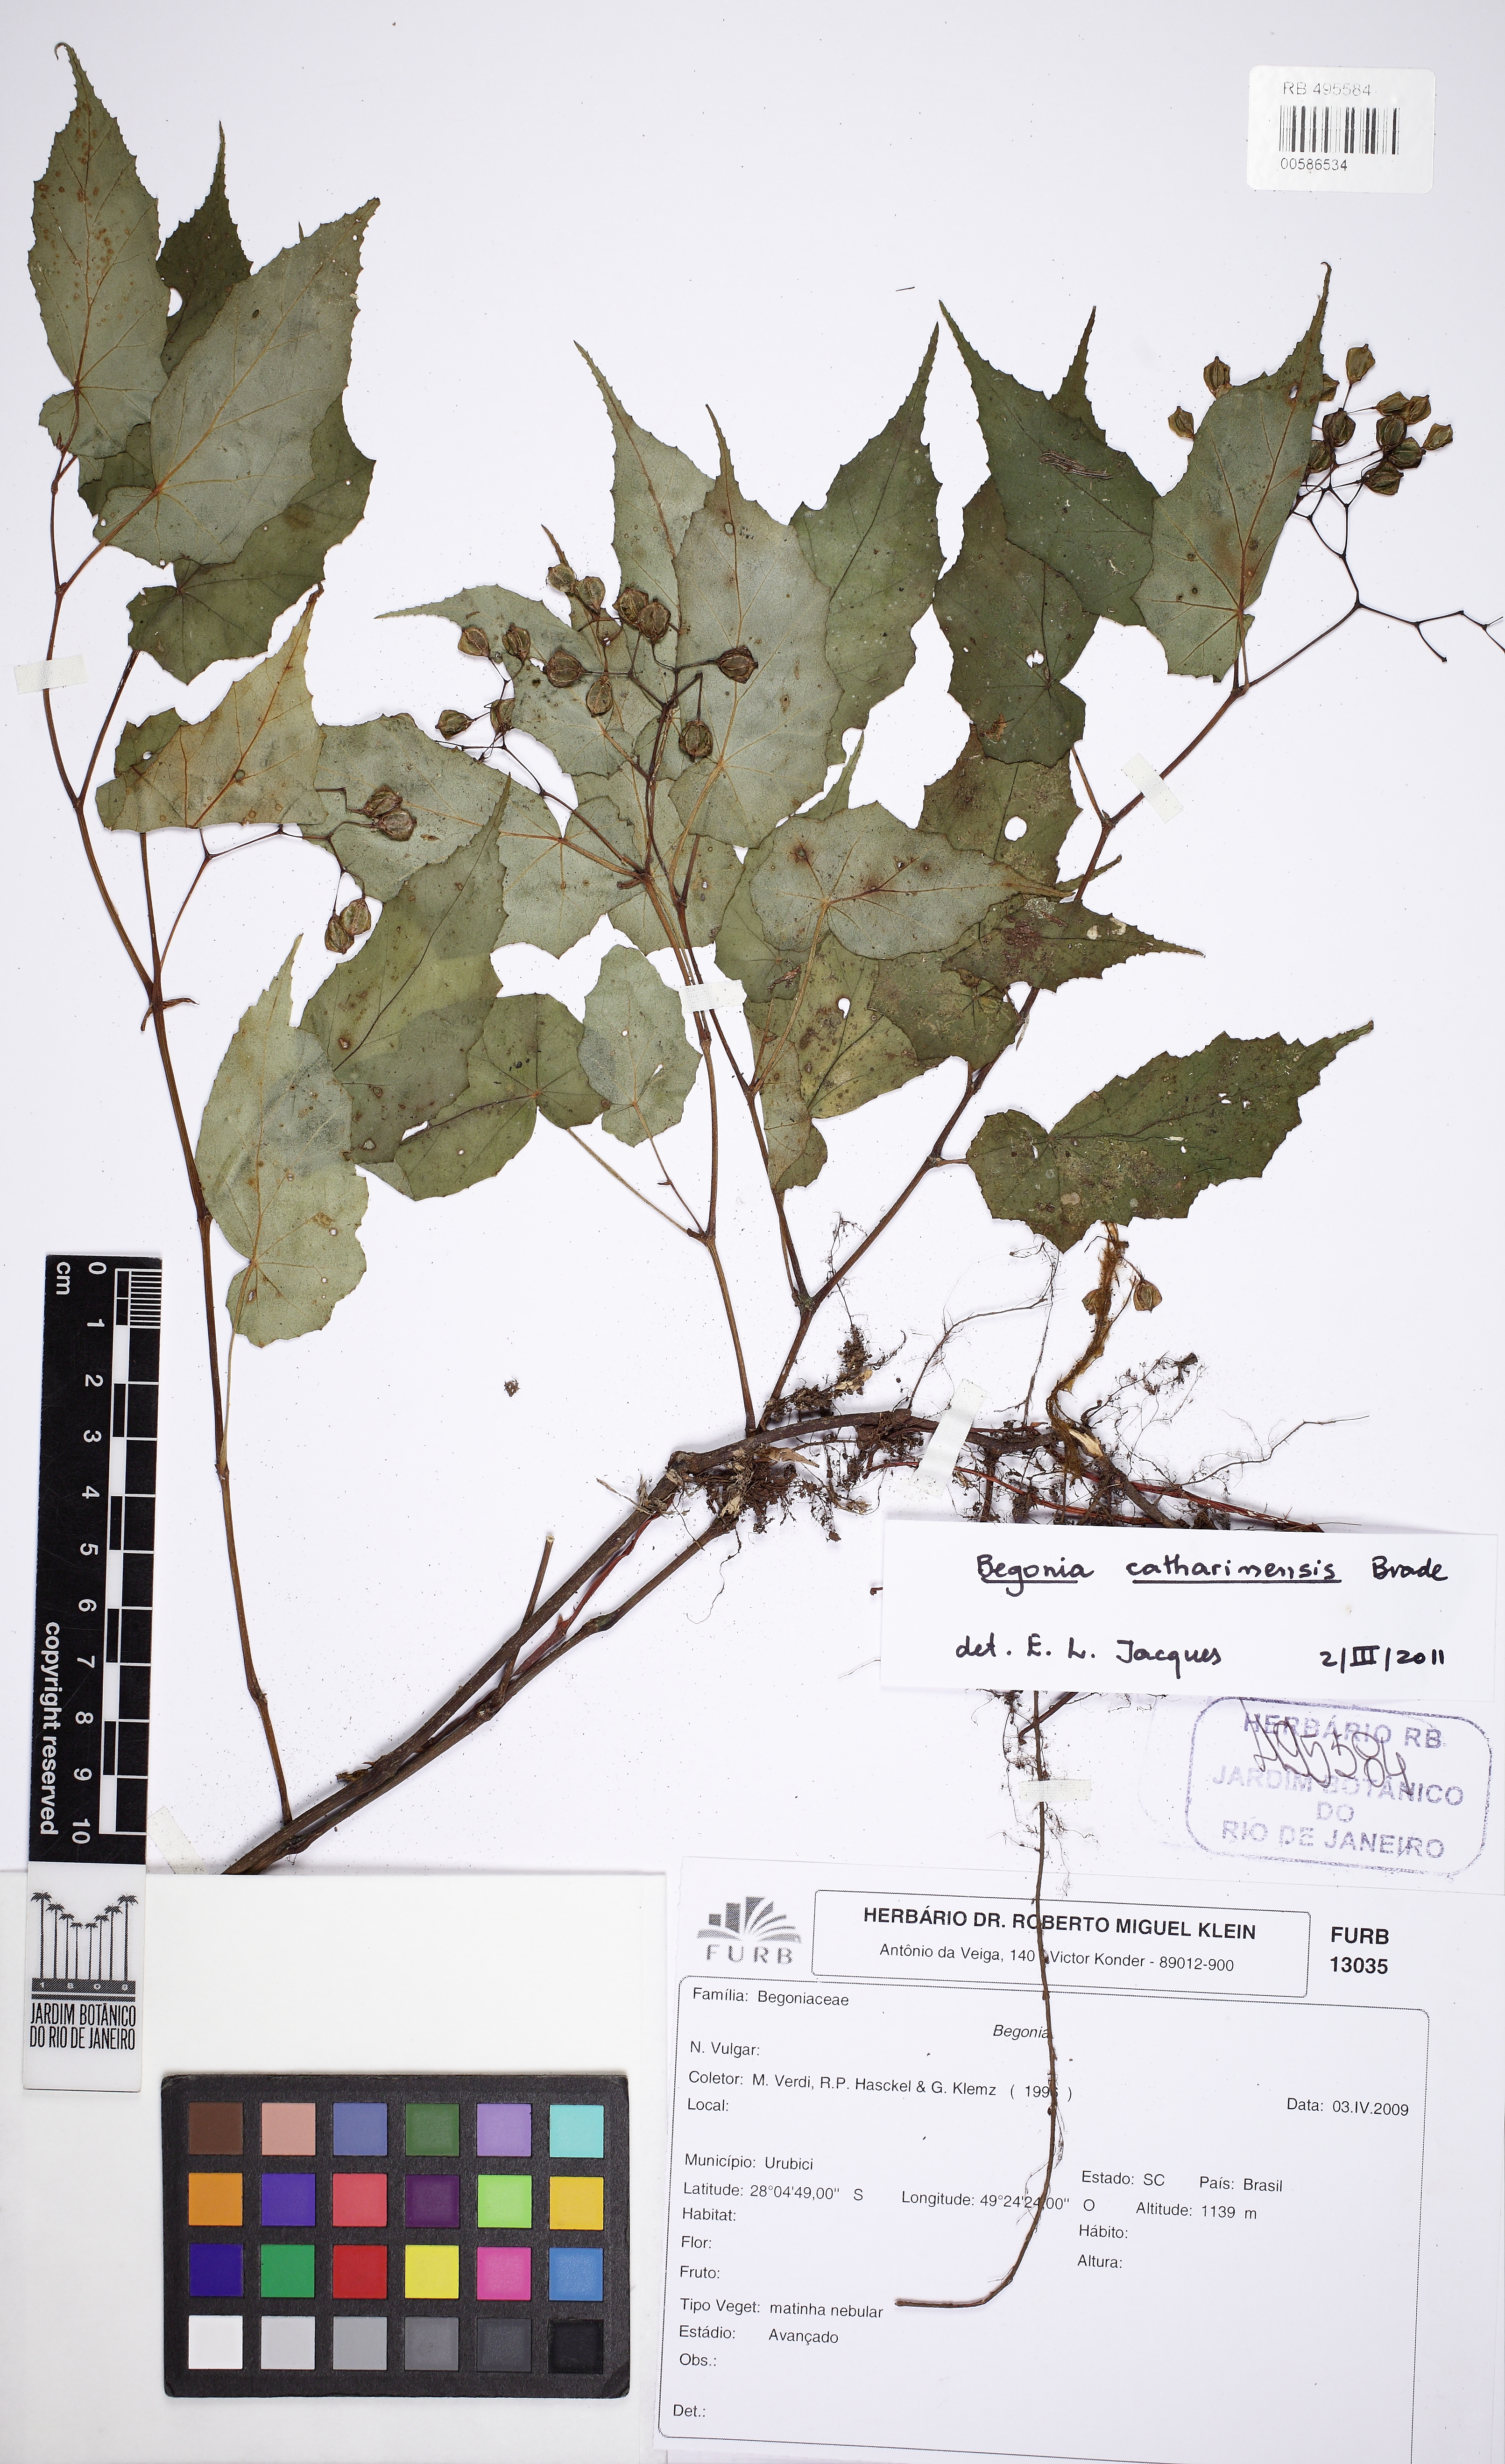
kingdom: Plantae
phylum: Tracheophyta
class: Magnoliopsida
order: Cucurbitales
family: Begoniaceae
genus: Begonia
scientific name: Begonia catharinensis
